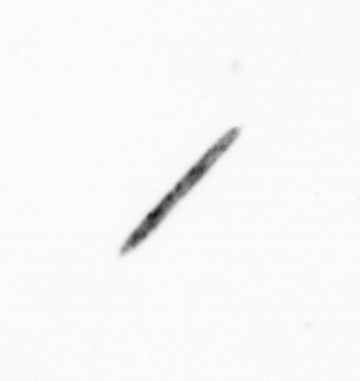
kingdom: Chromista
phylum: Ochrophyta
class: Bacillariophyceae
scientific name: Bacillariophyceae
